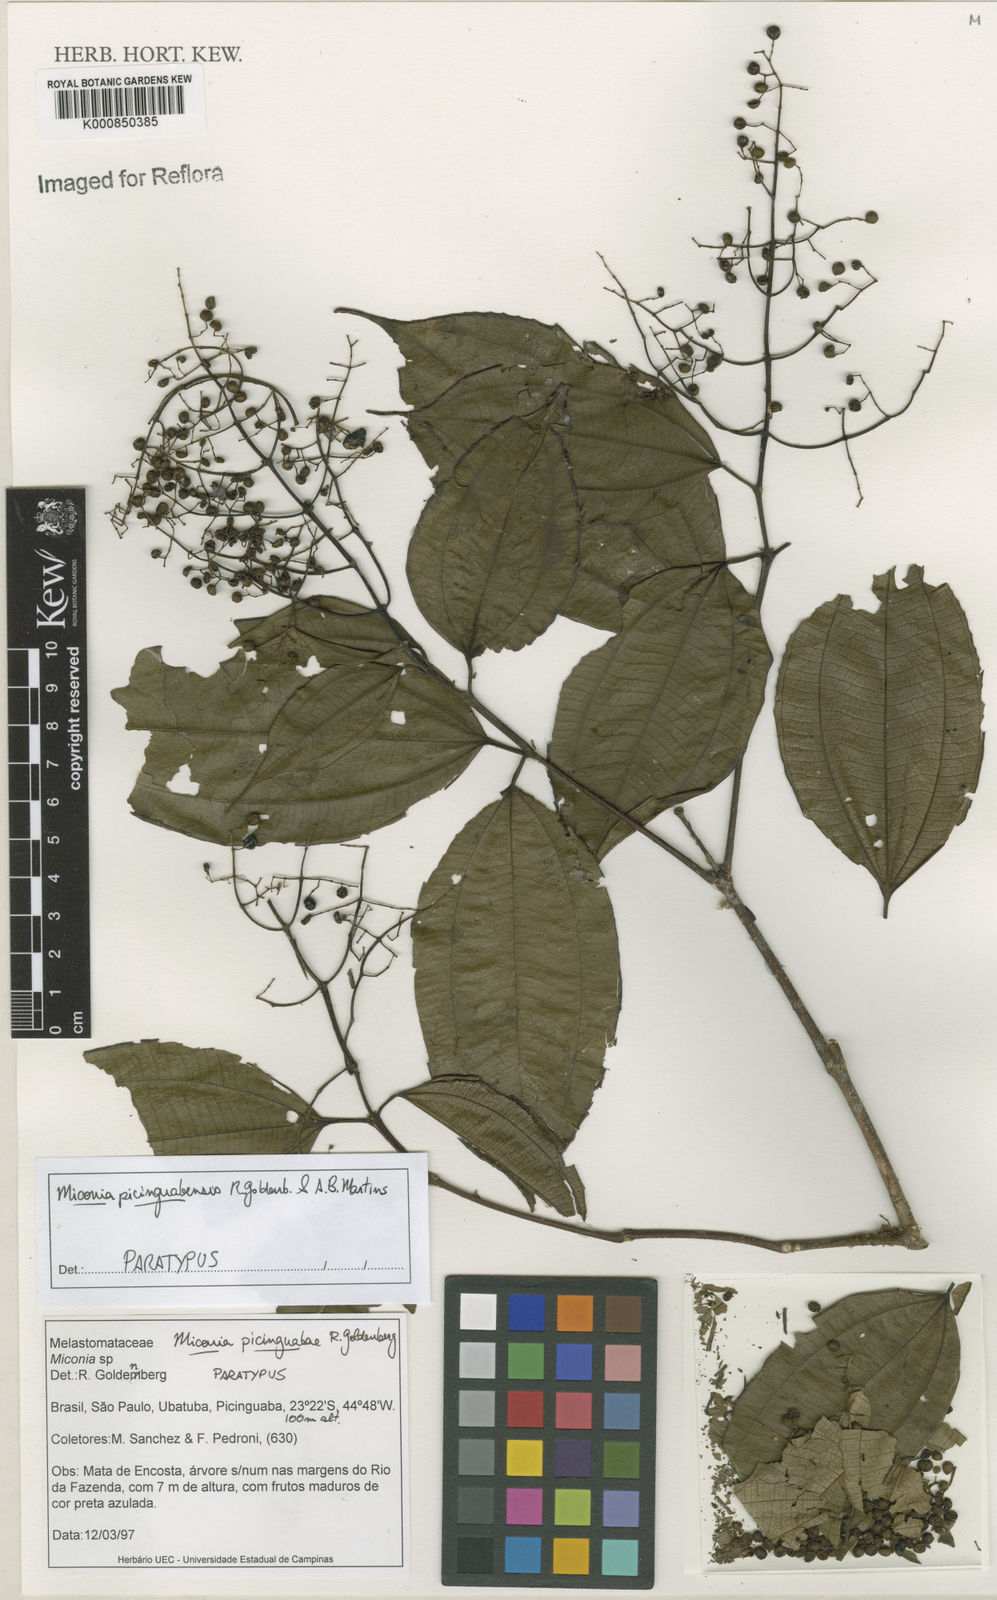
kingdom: Plantae
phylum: Tracheophyta
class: Magnoliopsida
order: Myrtales
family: Melastomataceae
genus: Miconia
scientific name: Miconia picinguabensis
